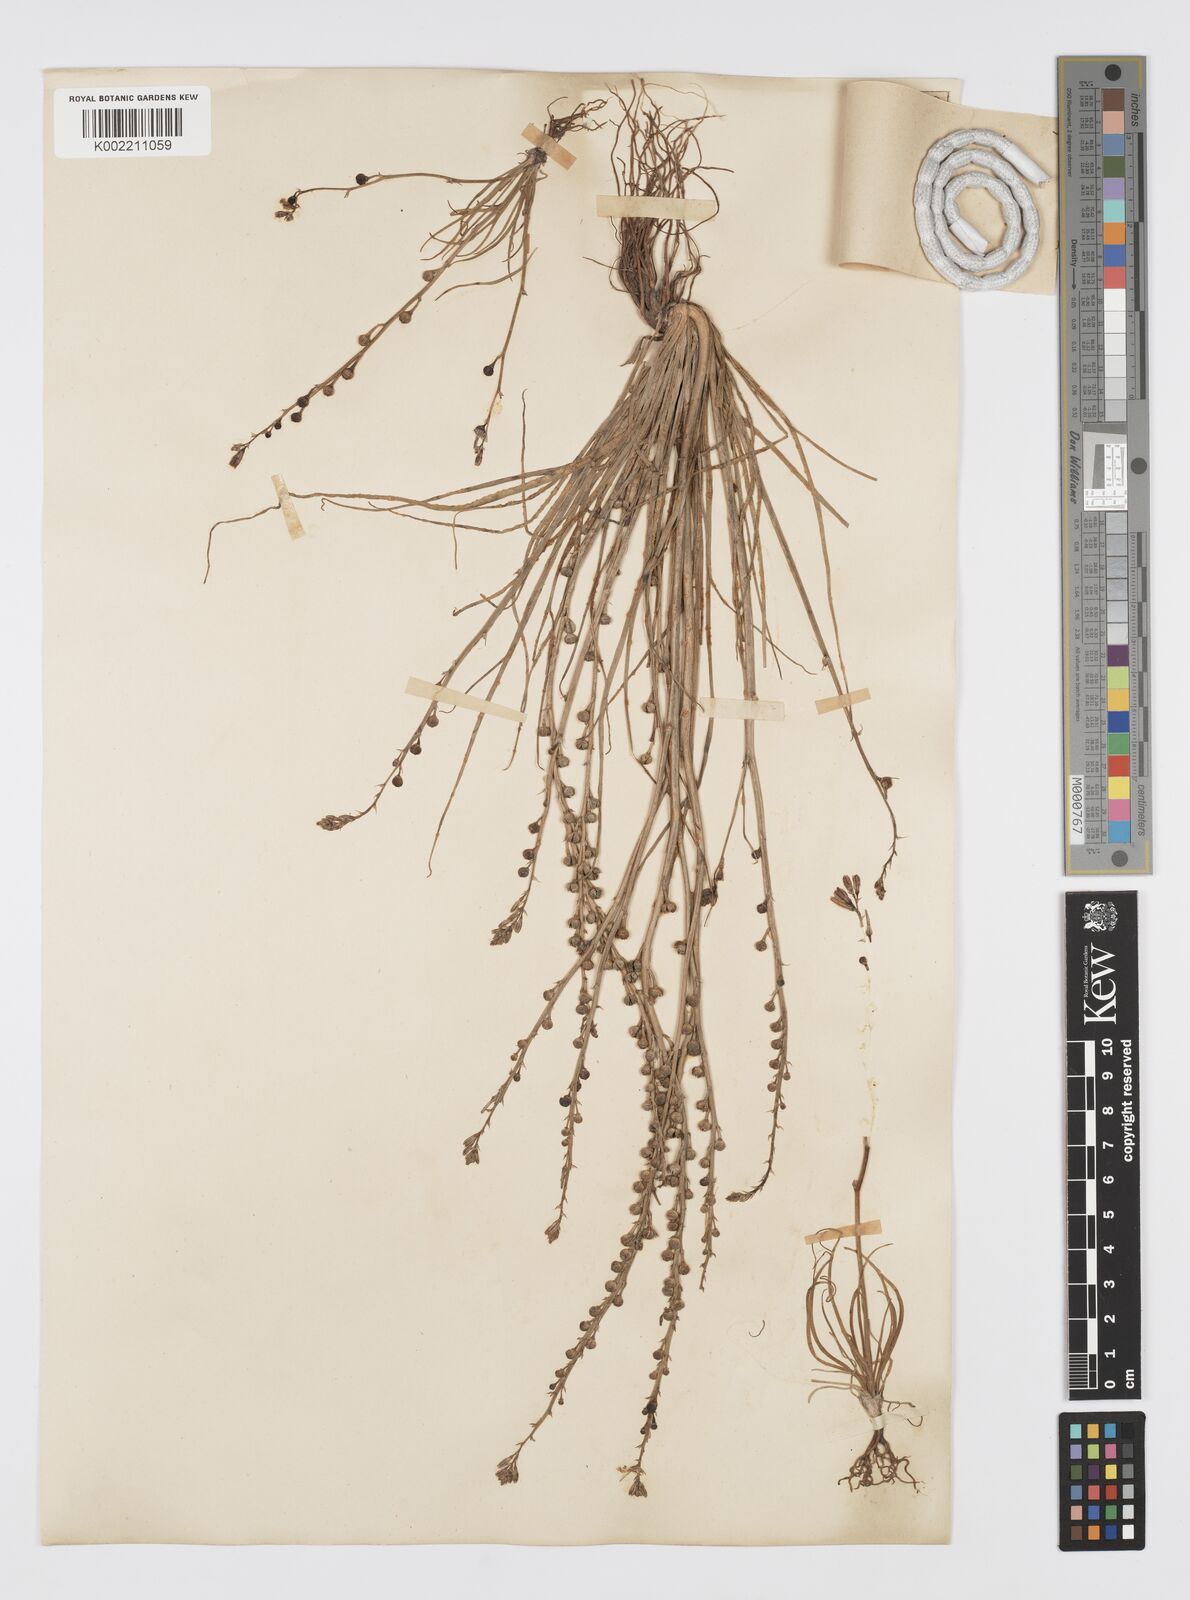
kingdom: Plantae
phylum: Tracheophyta
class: Liliopsida
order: Asparagales
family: Asphodelaceae
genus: Asphodelus
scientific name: Asphodelus tenuifolius
